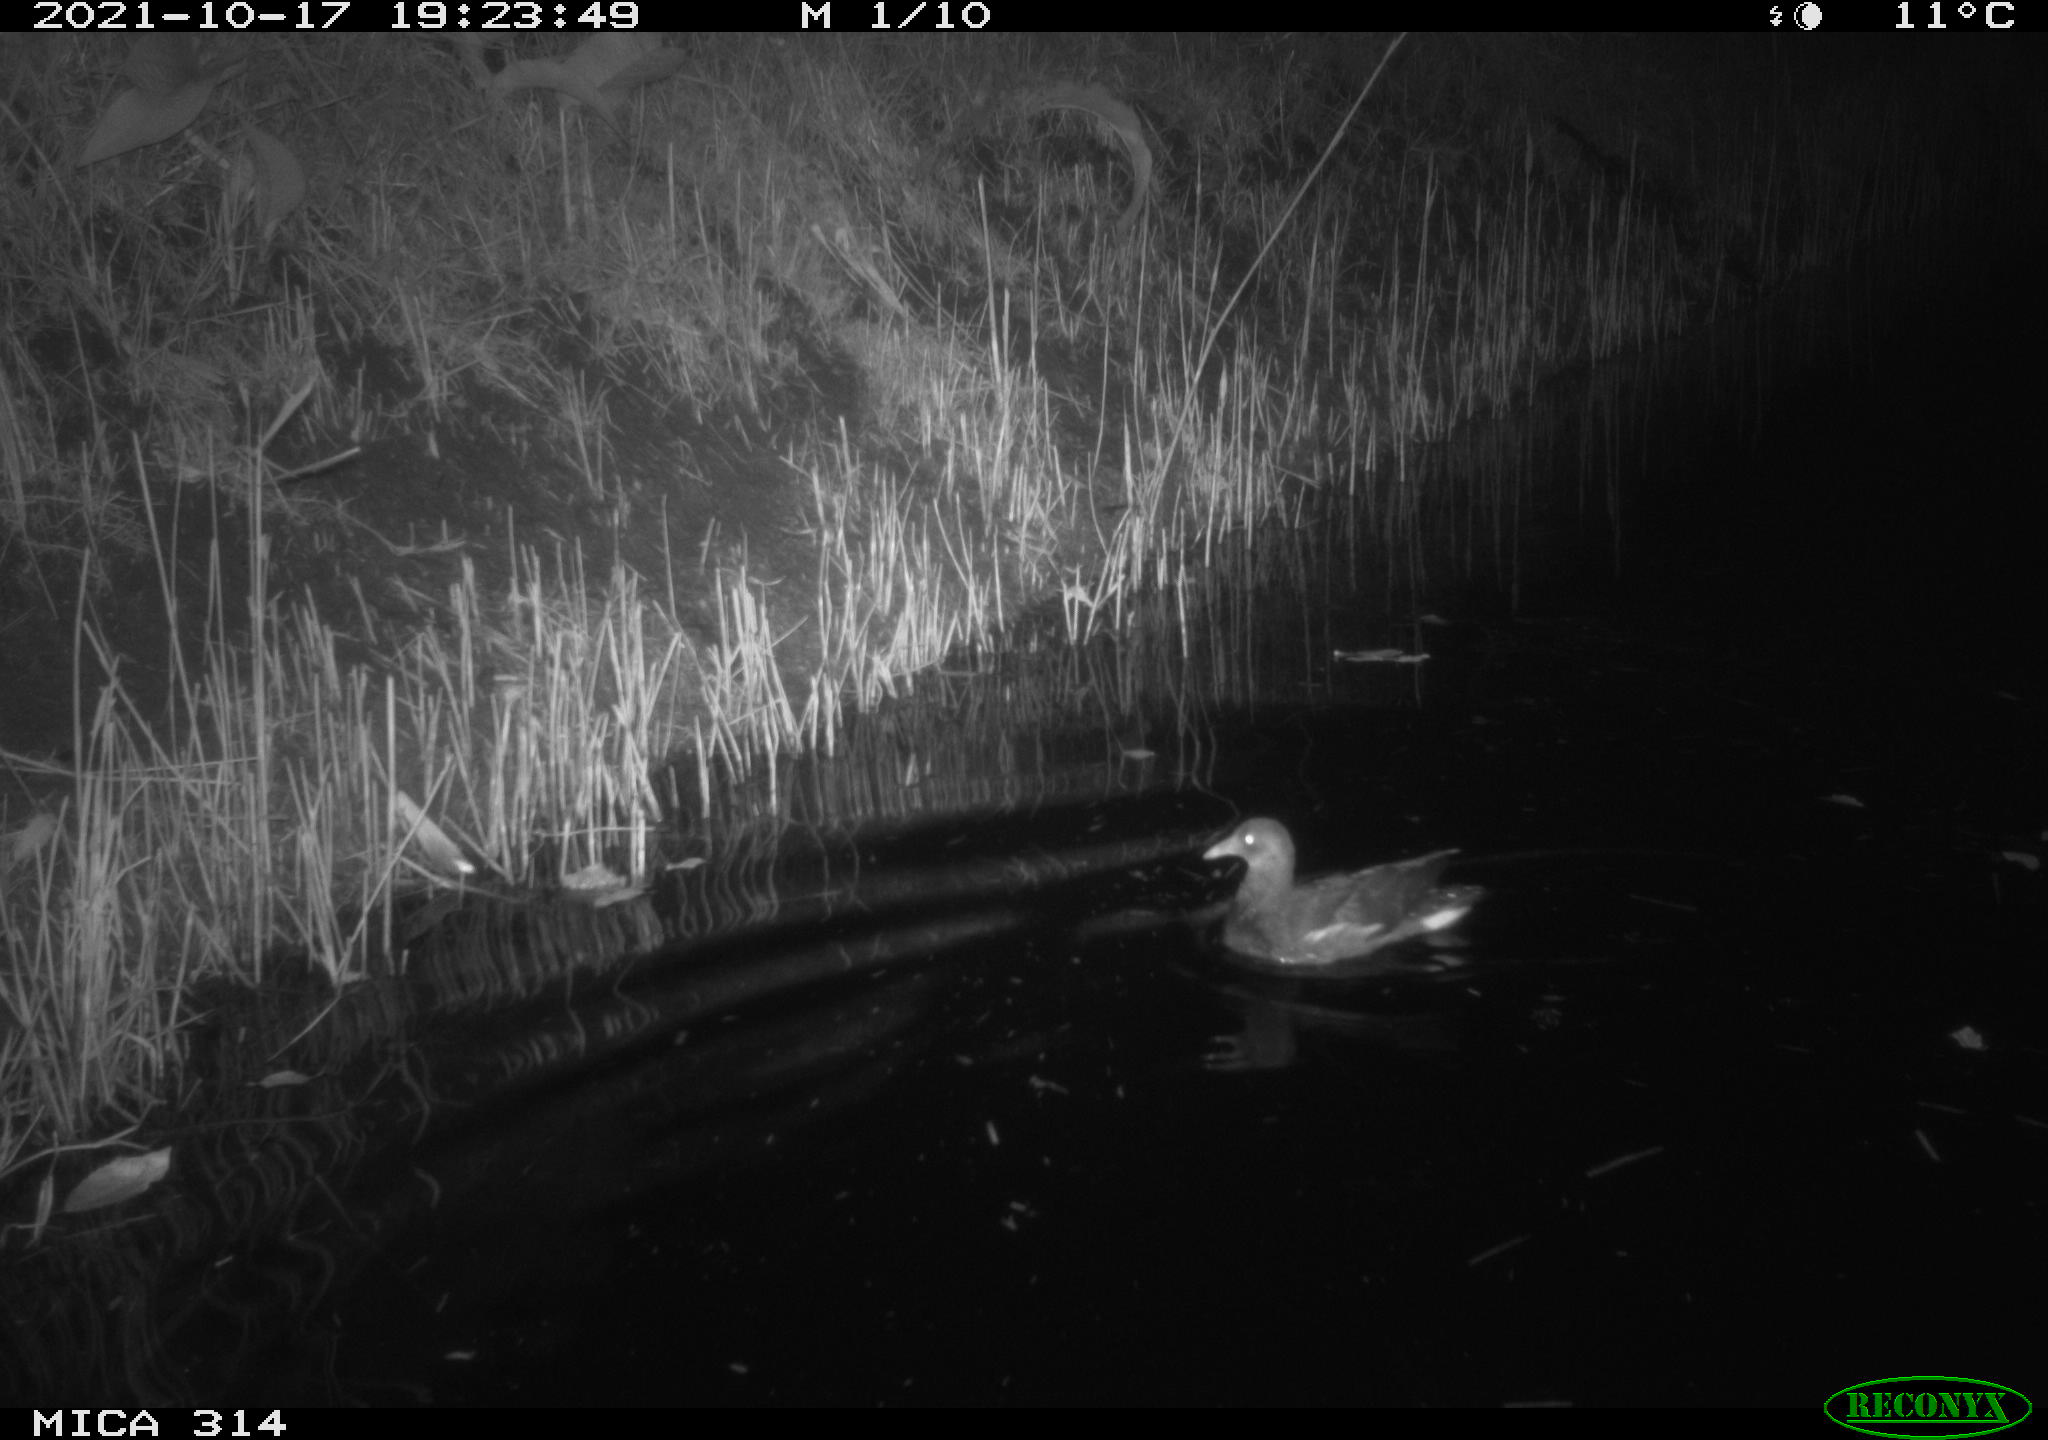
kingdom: Animalia
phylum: Chordata
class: Mammalia
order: Rodentia
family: Muridae
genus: Rattus
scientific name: Rattus norvegicus
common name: Brown rat
